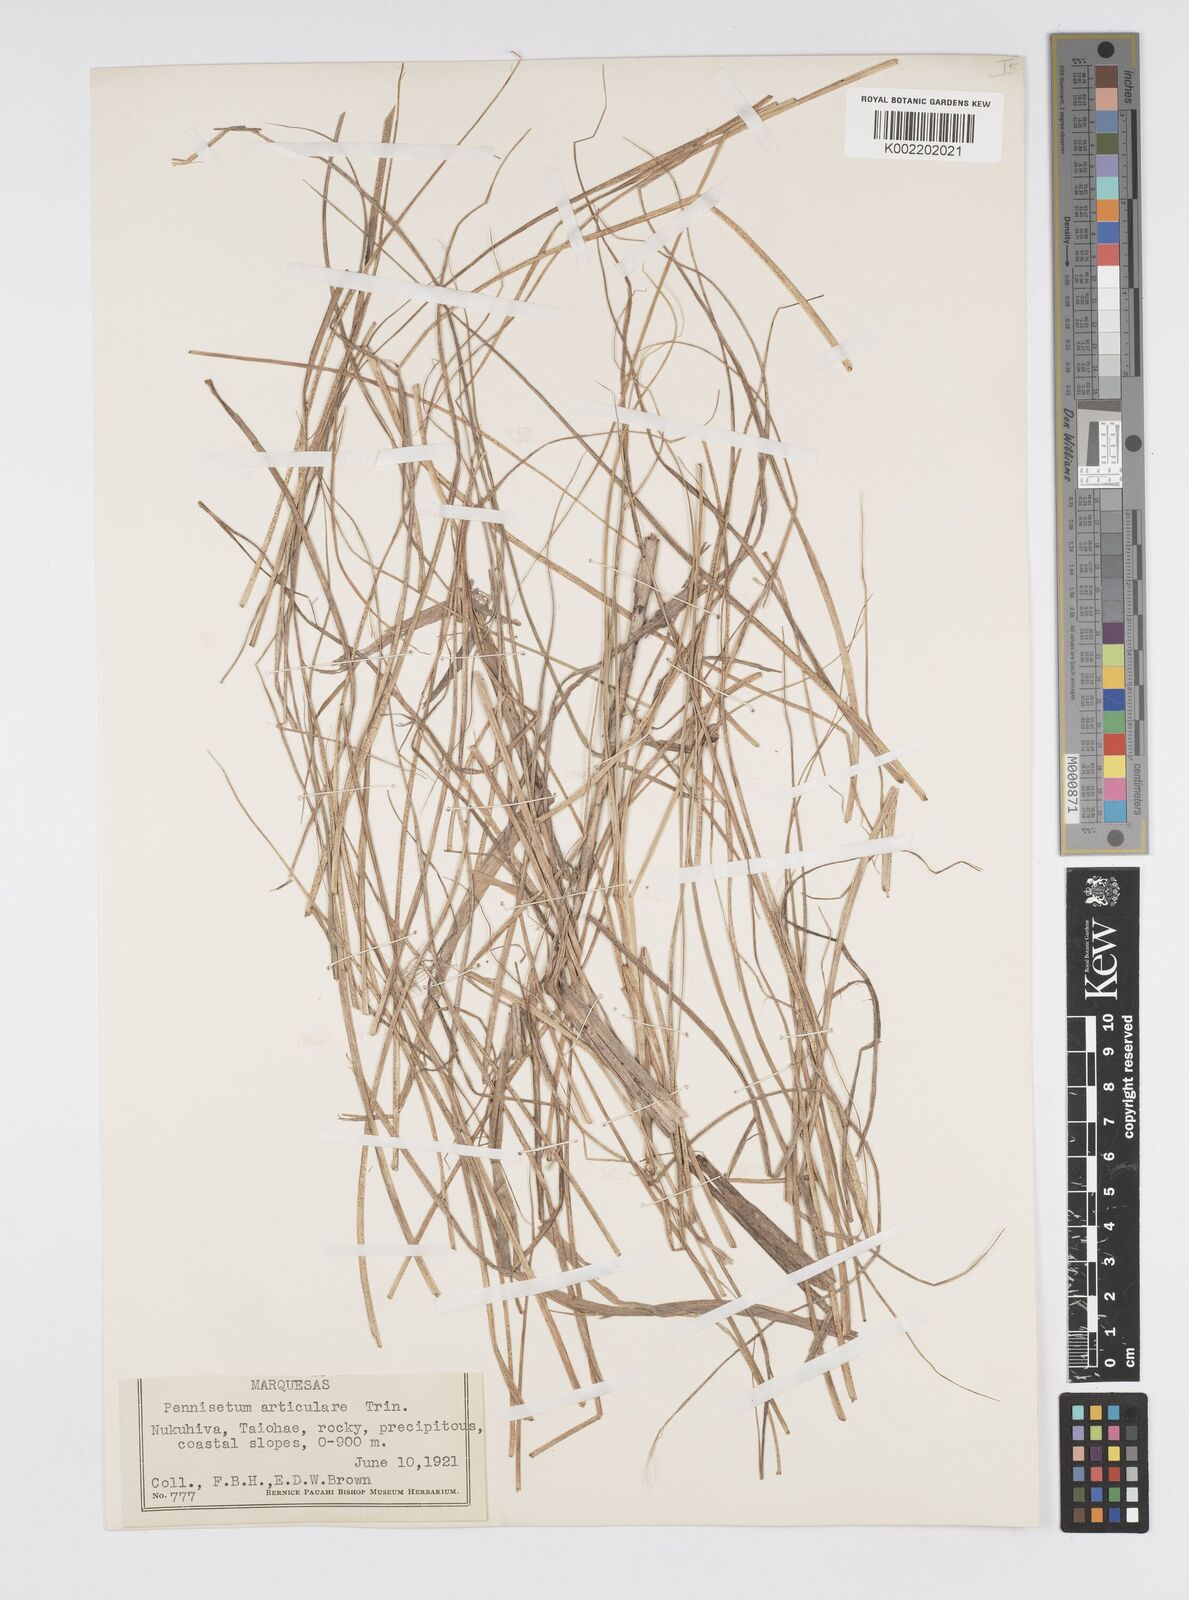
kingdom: Plantae
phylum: Tracheophyta
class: Liliopsida
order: Poales
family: Poaceae
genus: Cenchrus
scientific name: Cenchrus articularis
